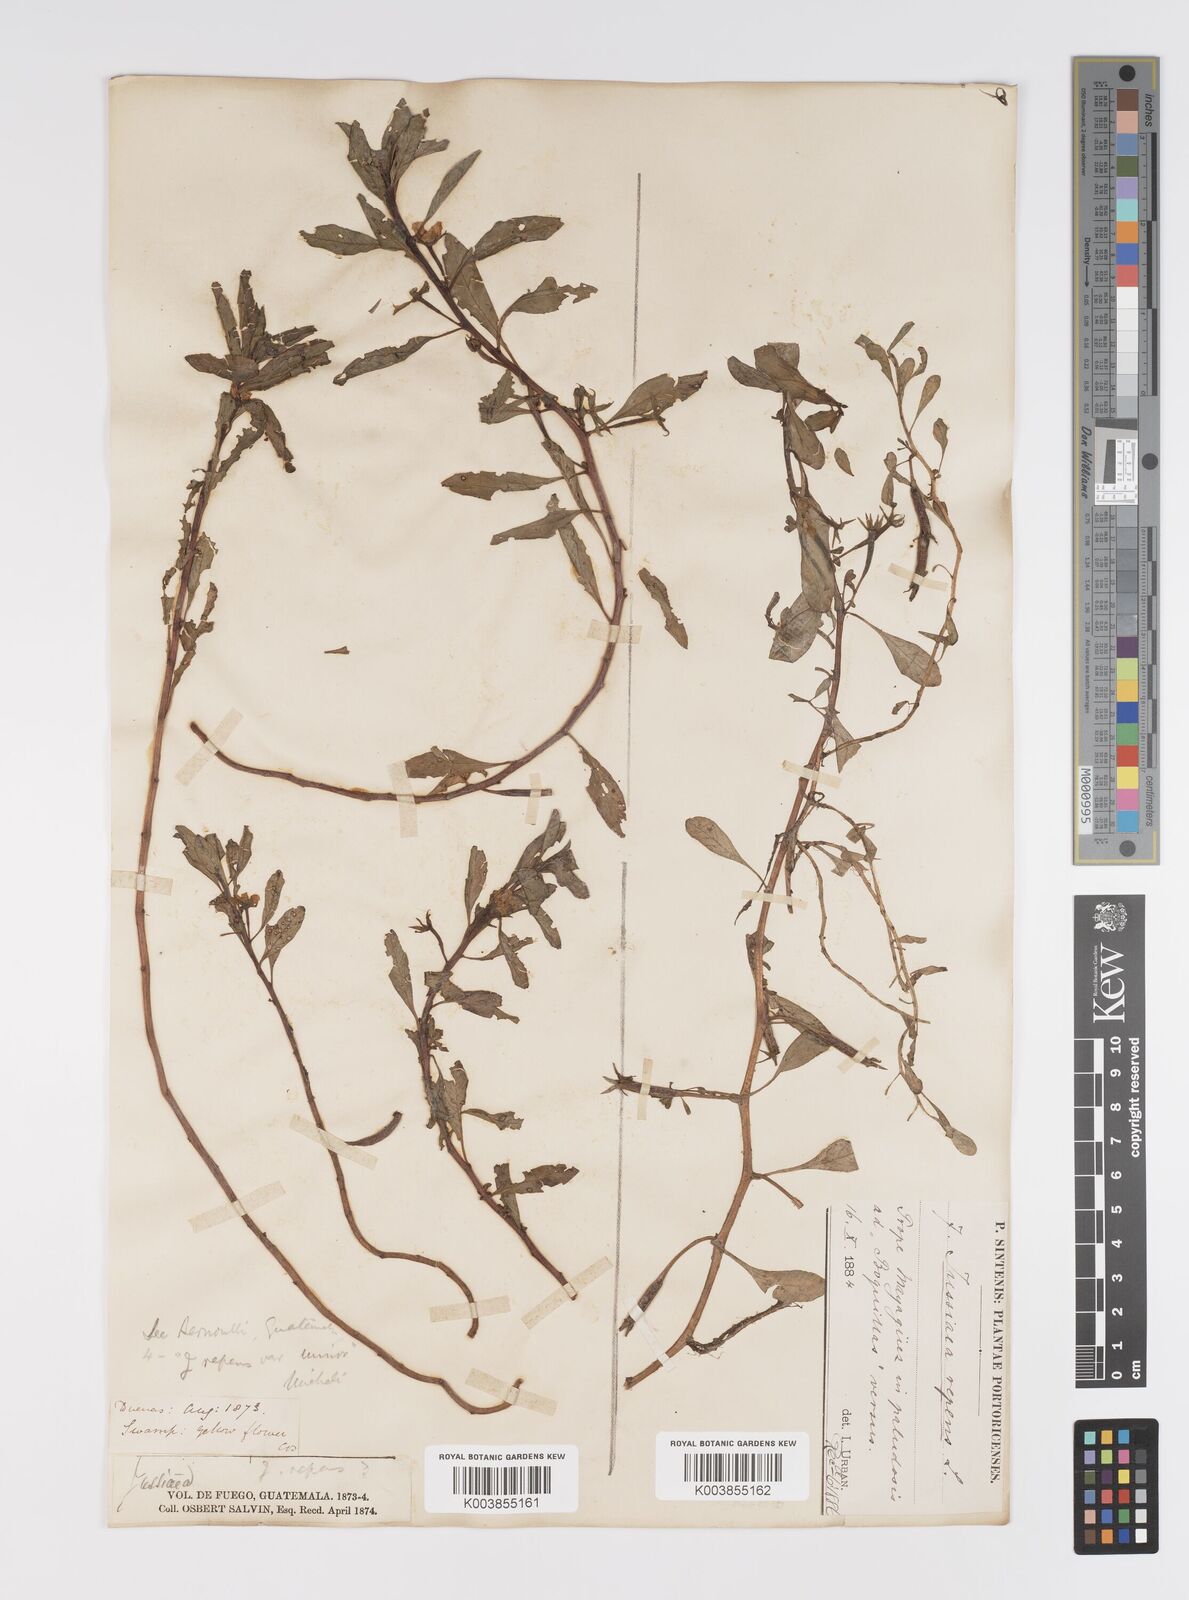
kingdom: Plantae
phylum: Tracheophyta
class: Magnoliopsida
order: Myrtales
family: Onagraceae
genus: Ludwigia
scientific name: Ludwigia adscendens
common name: Creeping water primrose
